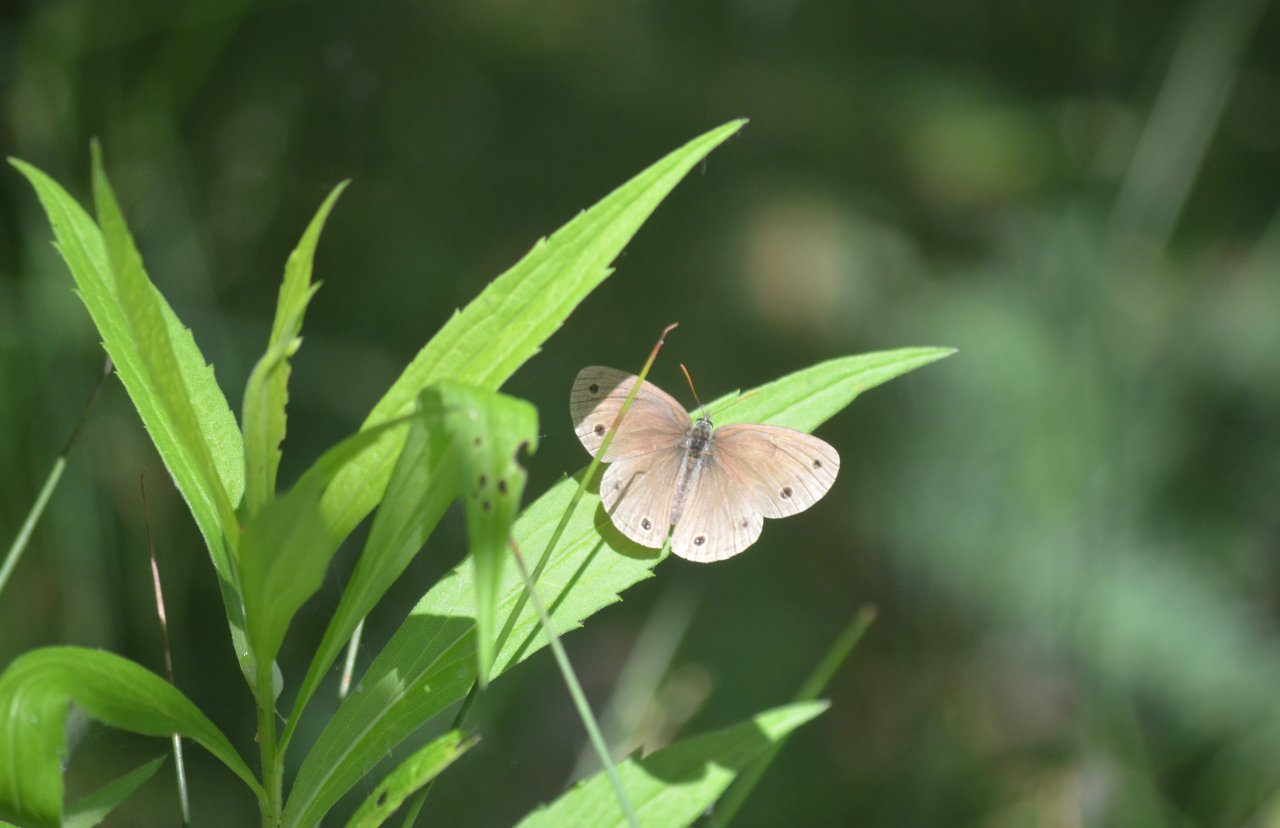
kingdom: Animalia
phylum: Arthropoda
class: Insecta
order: Lepidoptera
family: Nymphalidae
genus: Euptychia
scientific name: Euptychia cymela
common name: Little Wood Satyr
